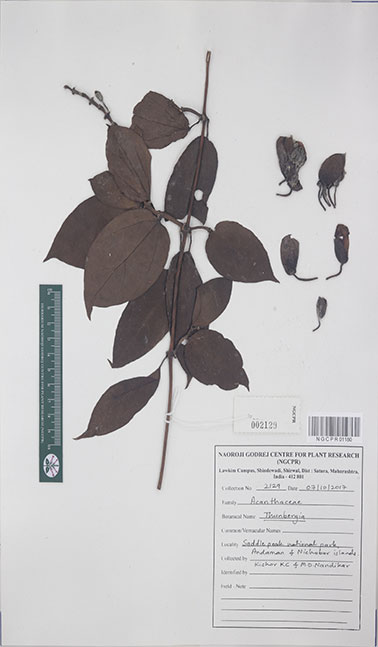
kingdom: Plantae
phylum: Tracheophyta
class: Magnoliopsida
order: Lamiales
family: Acanthaceae
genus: Thunbergia
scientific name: Thunbergia
